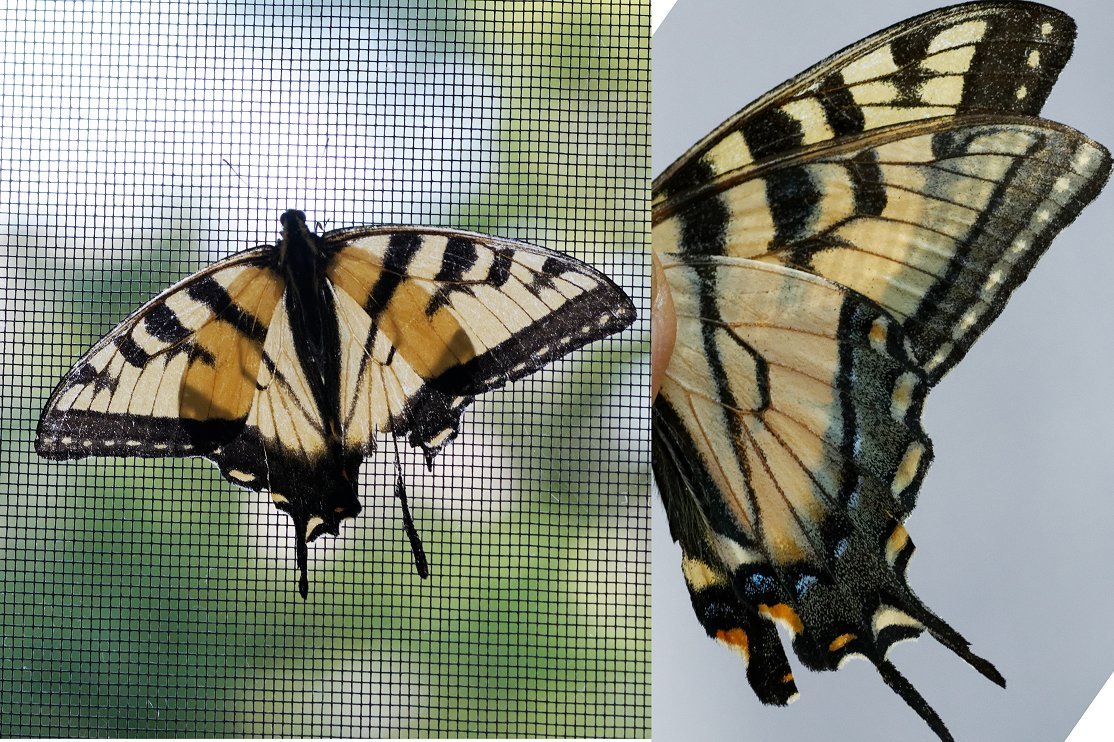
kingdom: Animalia
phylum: Arthropoda
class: Insecta
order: Lepidoptera
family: Papilionidae
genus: Pterourus
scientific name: Pterourus
